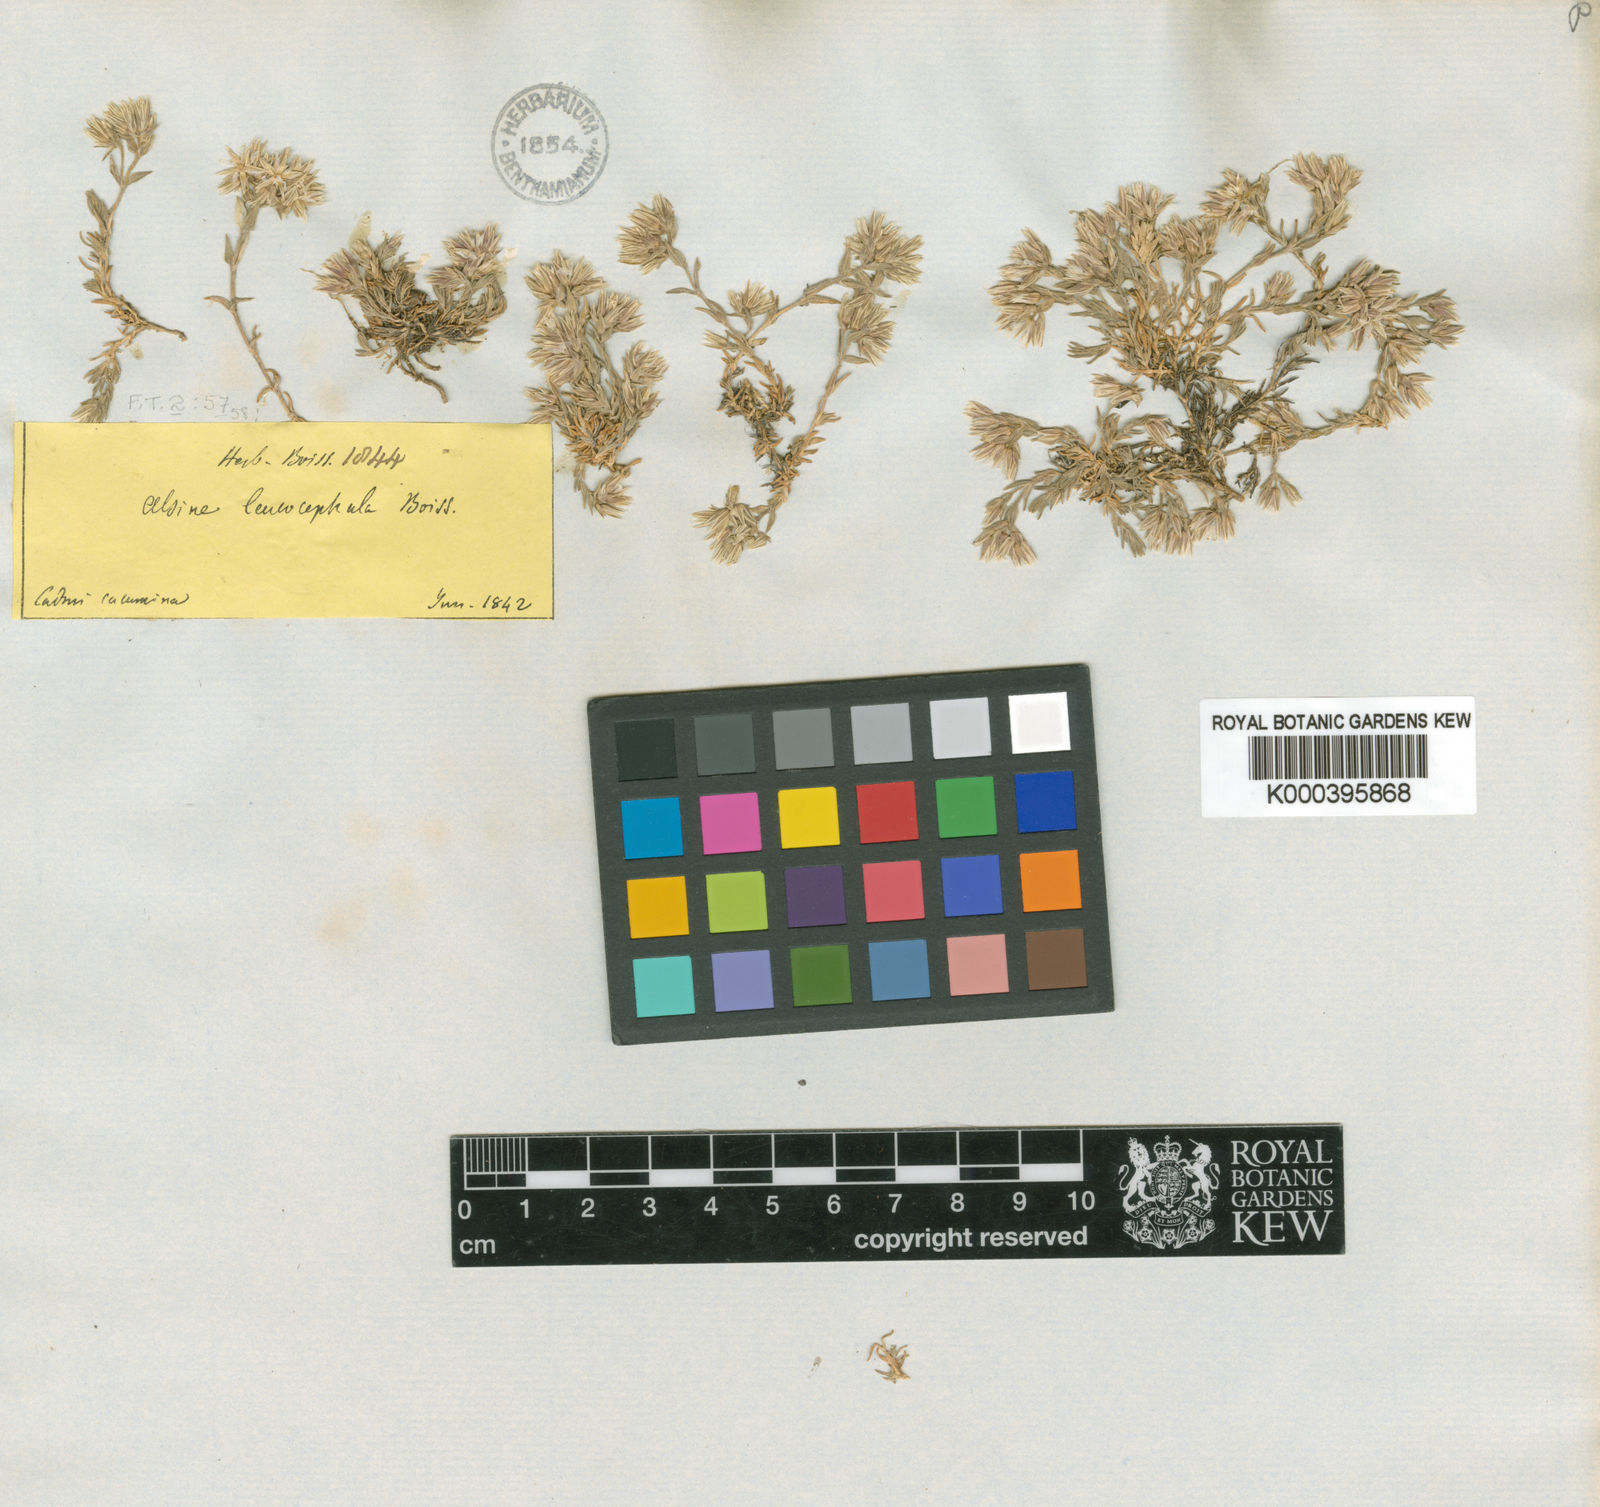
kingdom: Plantae
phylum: Tracheophyta
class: Magnoliopsida
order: Caryophyllales
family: Caryophyllaceae
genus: Minuartia
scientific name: Minuartia leucocephala
